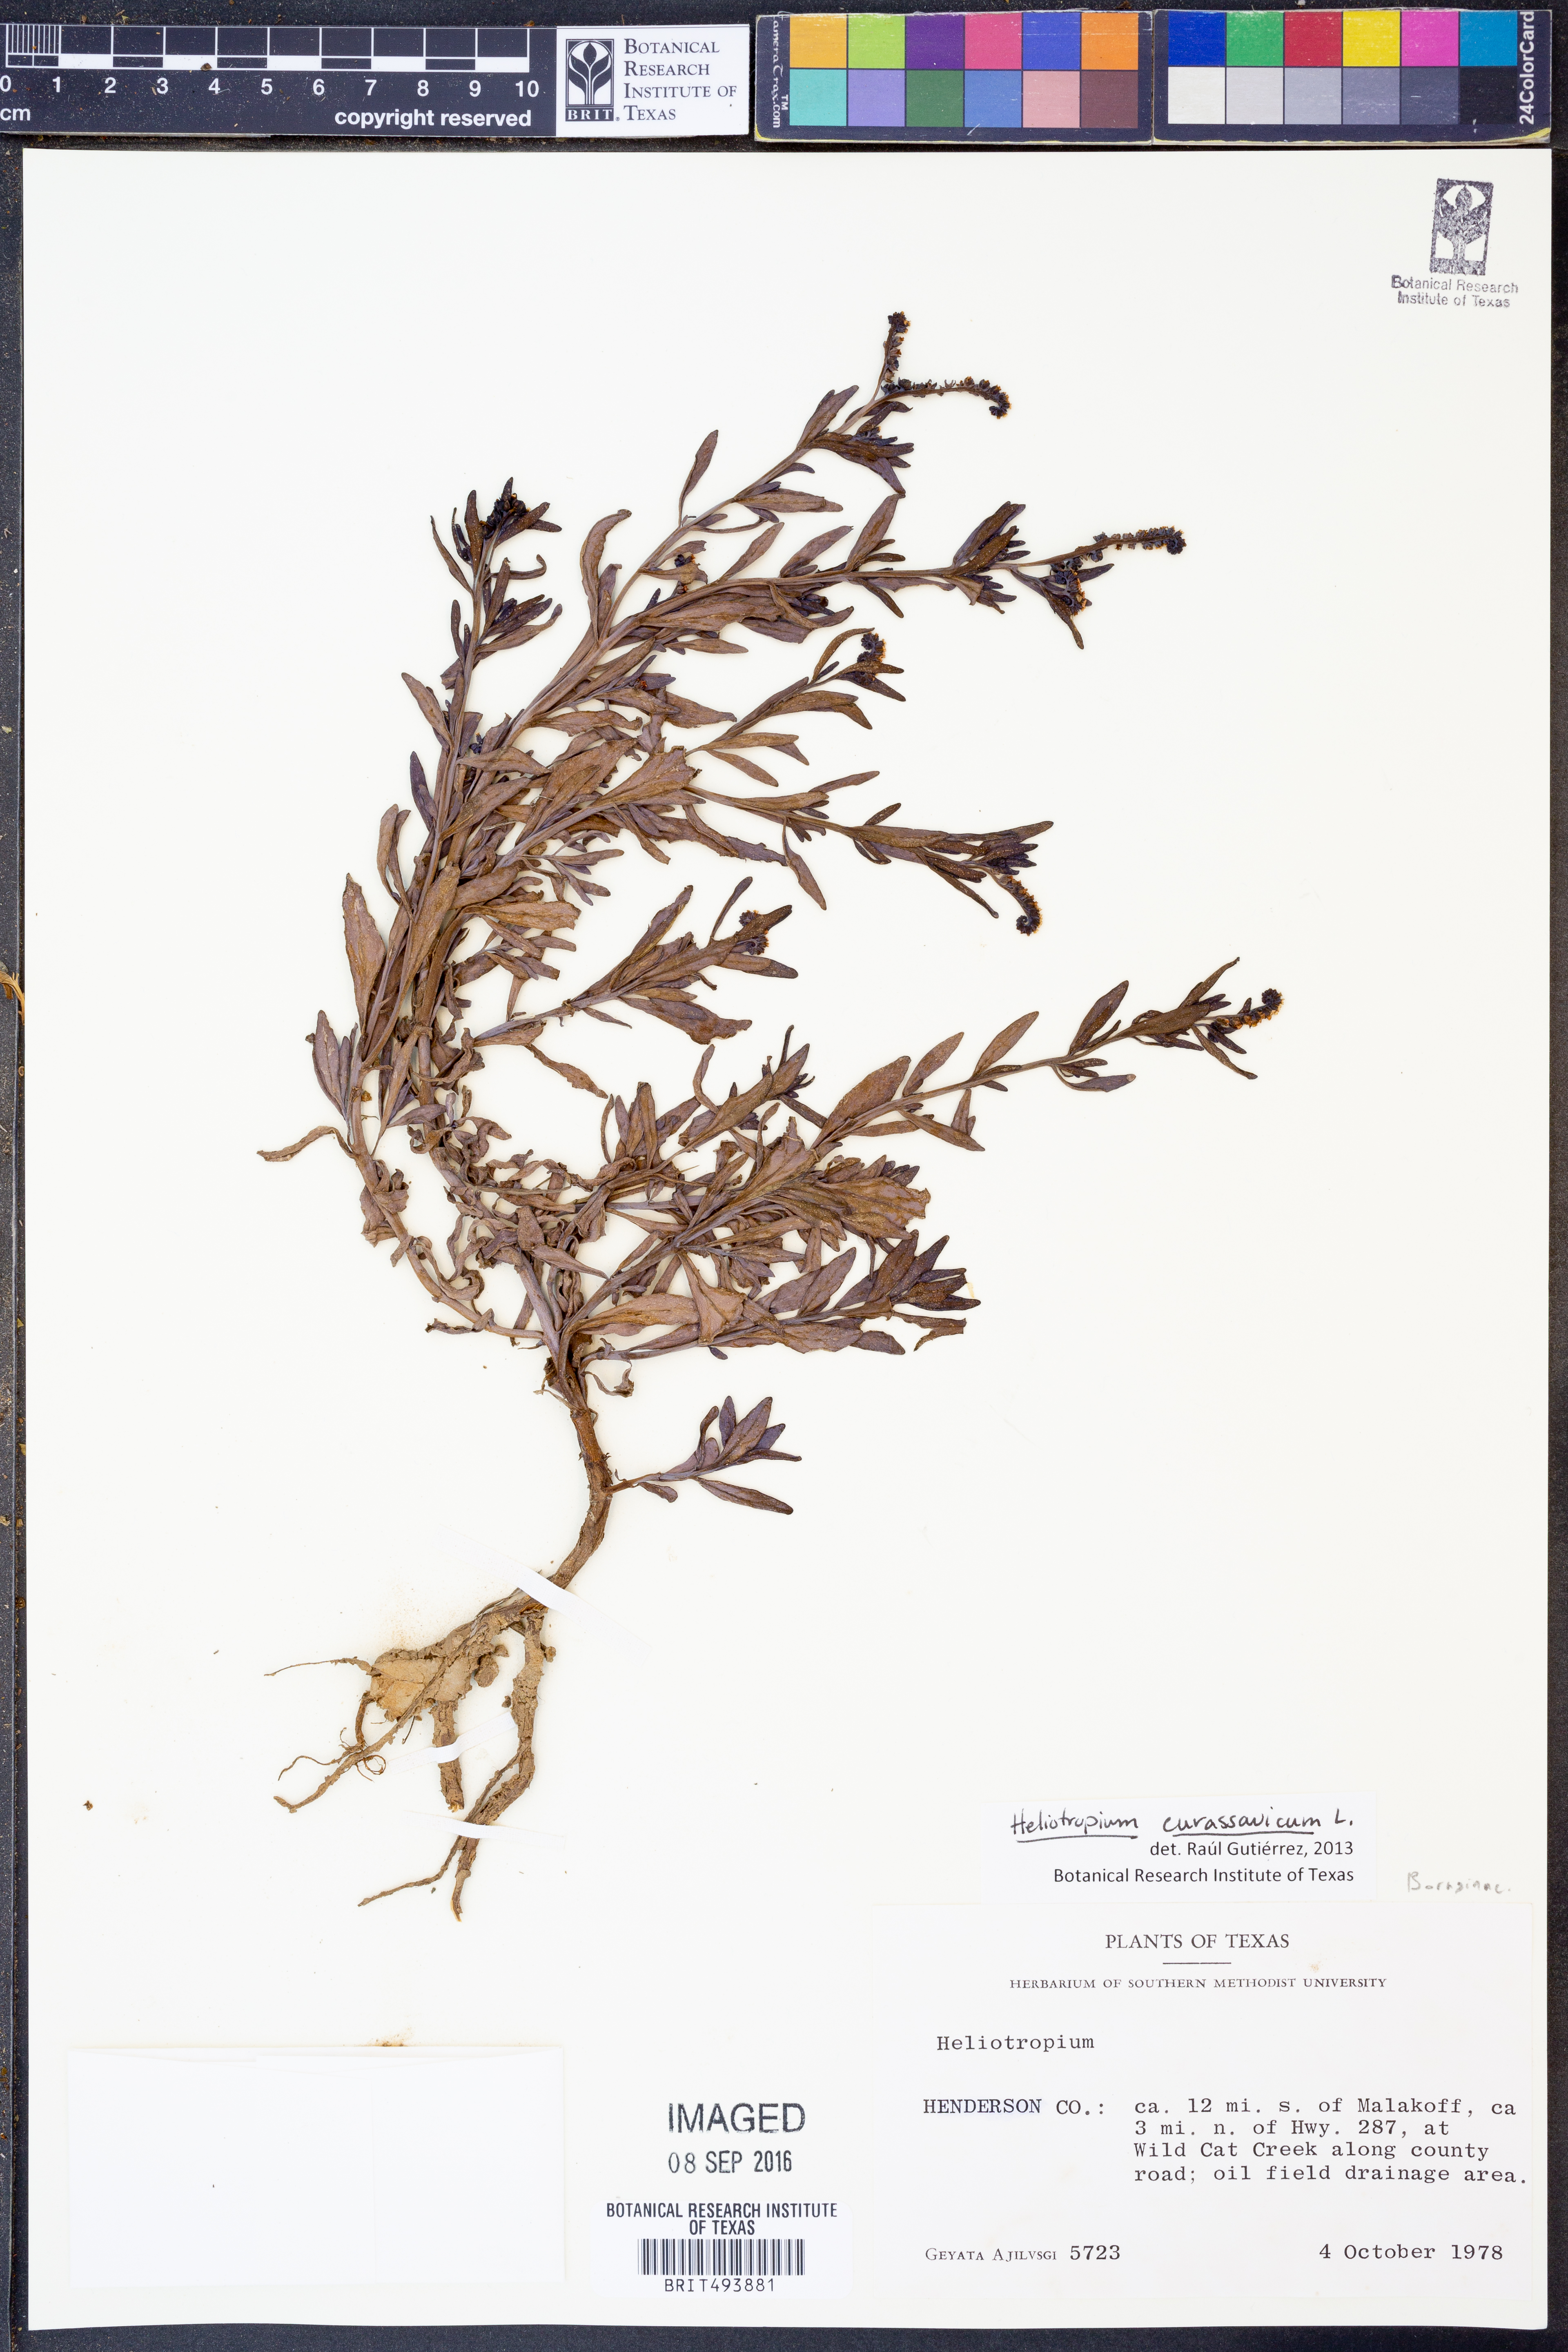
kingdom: Plantae
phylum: Tracheophyta
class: Magnoliopsida
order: Boraginales
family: Heliotropiaceae
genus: Heliotropium
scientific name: Heliotropium curassavicum
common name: Seaside heliotrope
